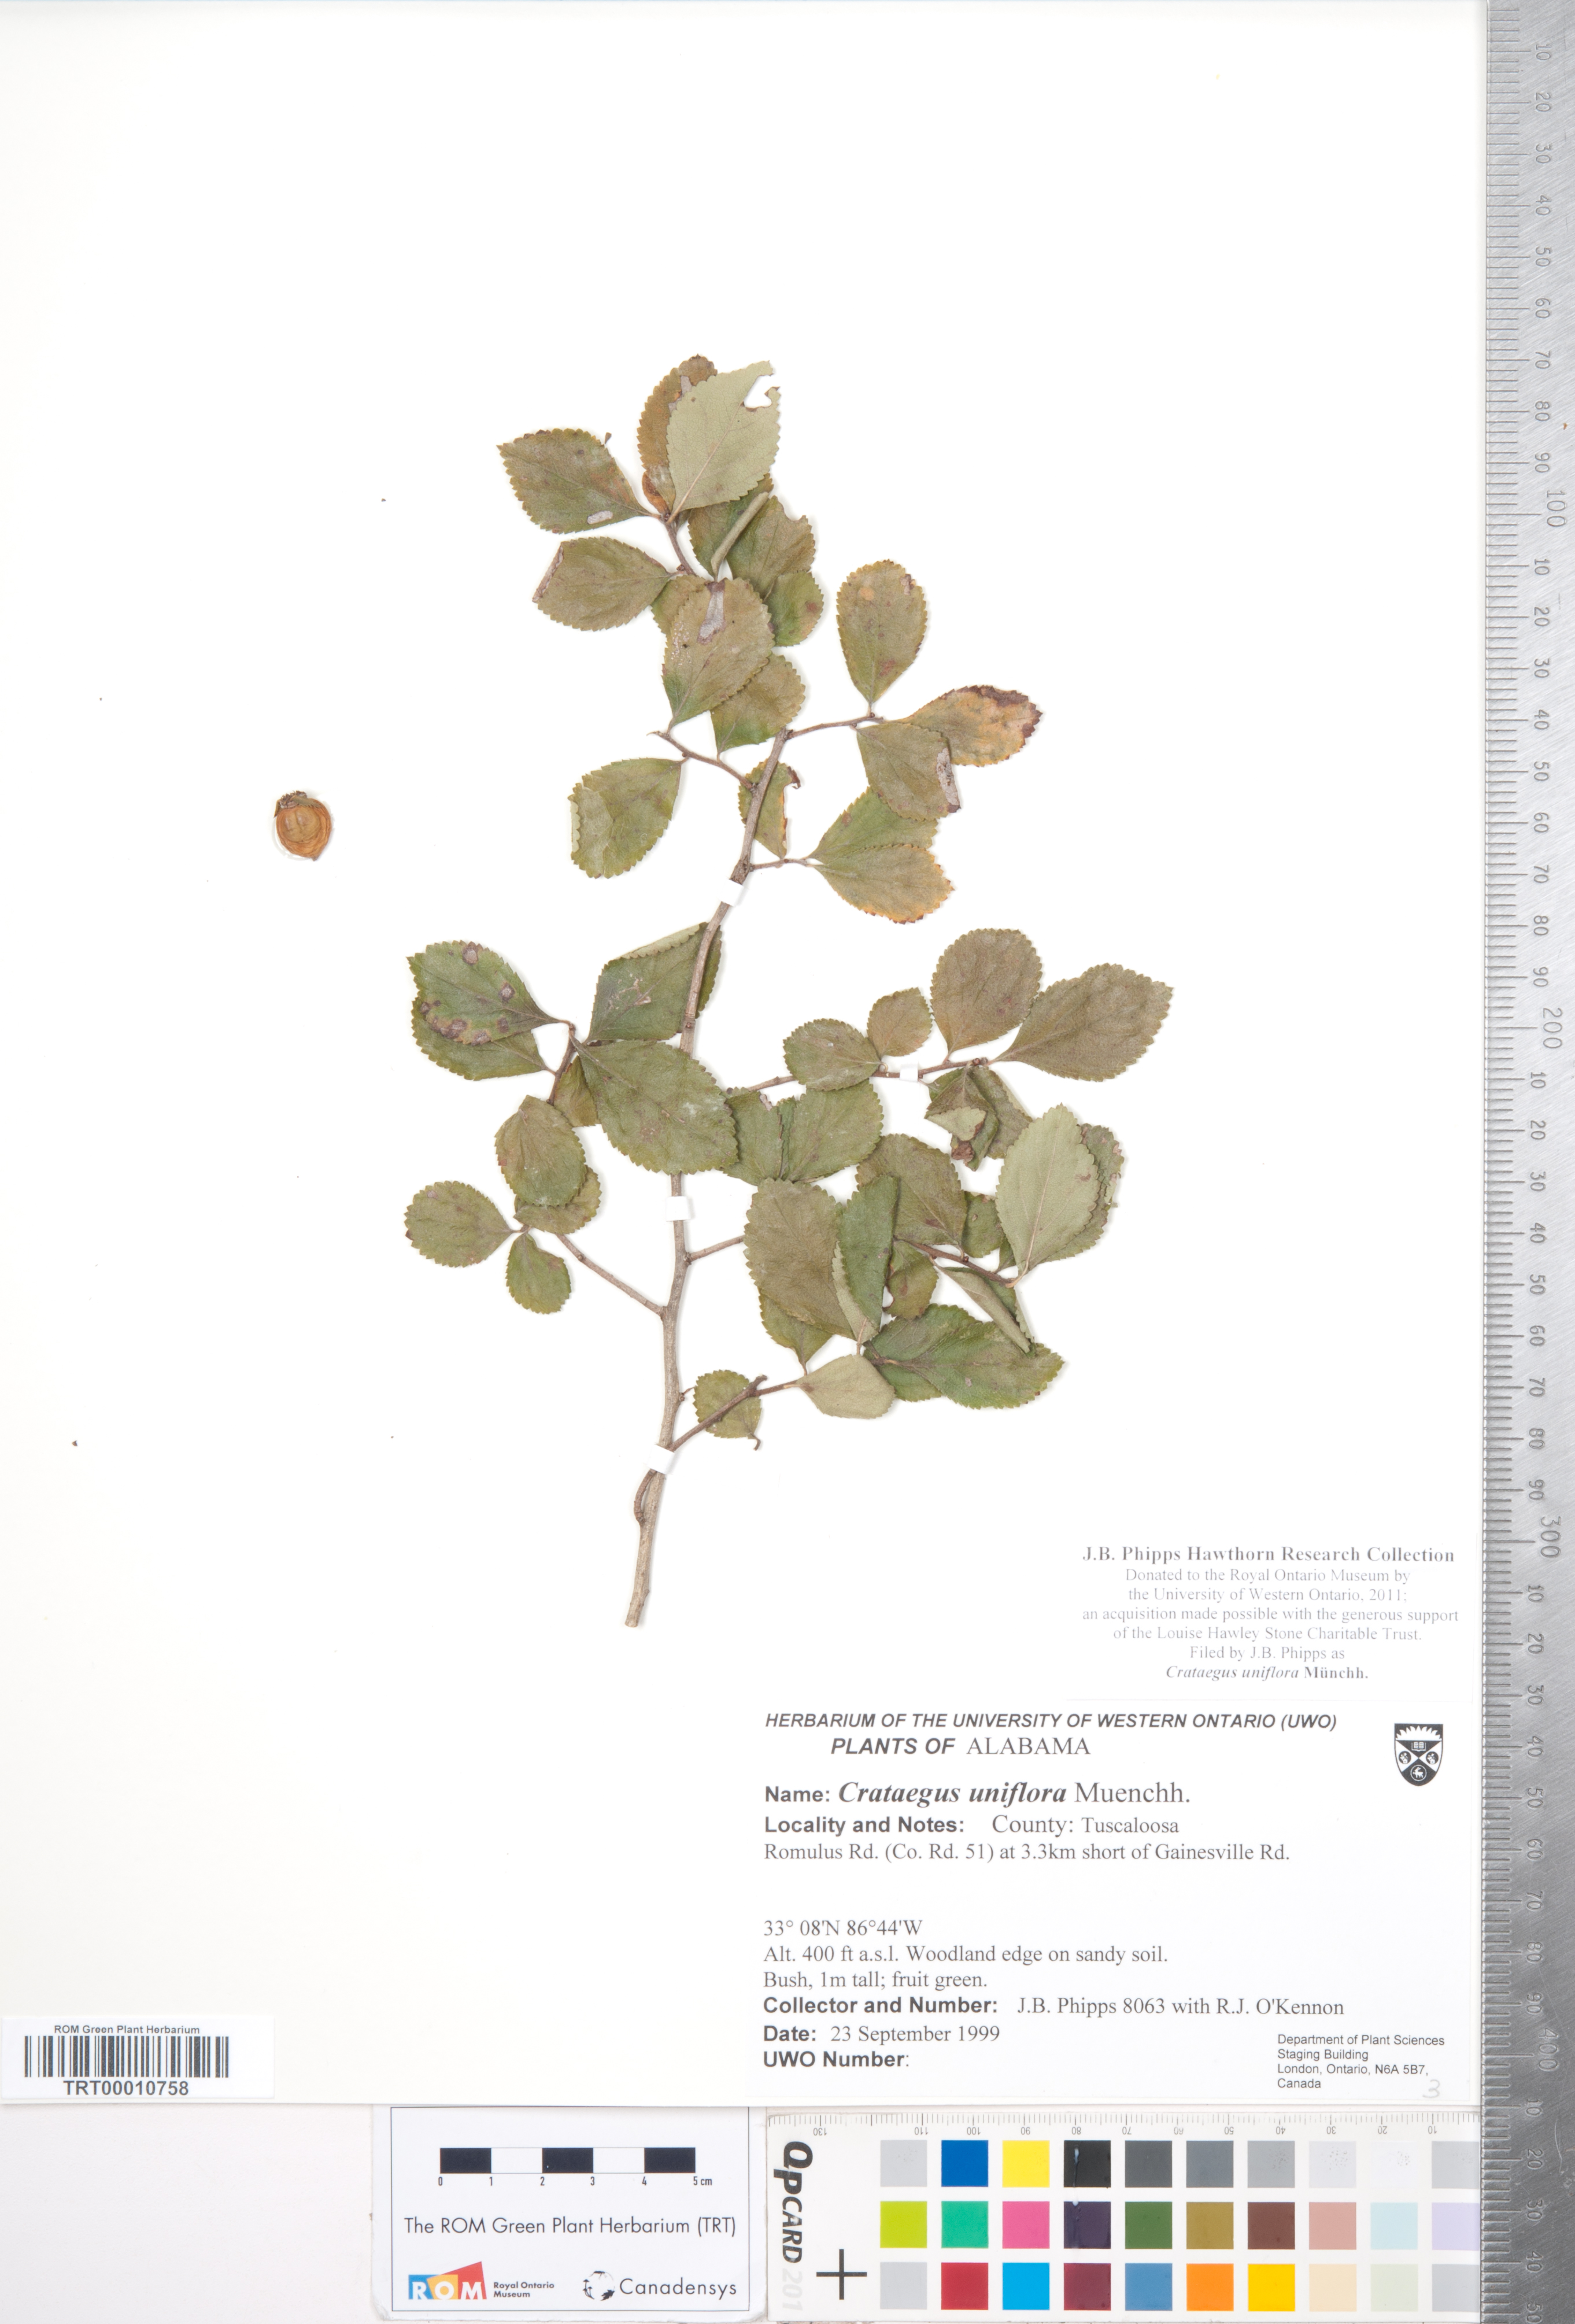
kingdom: Plantae
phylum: Tracheophyta
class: Magnoliopsida
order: Rosales
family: Rosaceae
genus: Crataegus
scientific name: Crataegus uniflora
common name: One-flower hawthorn
